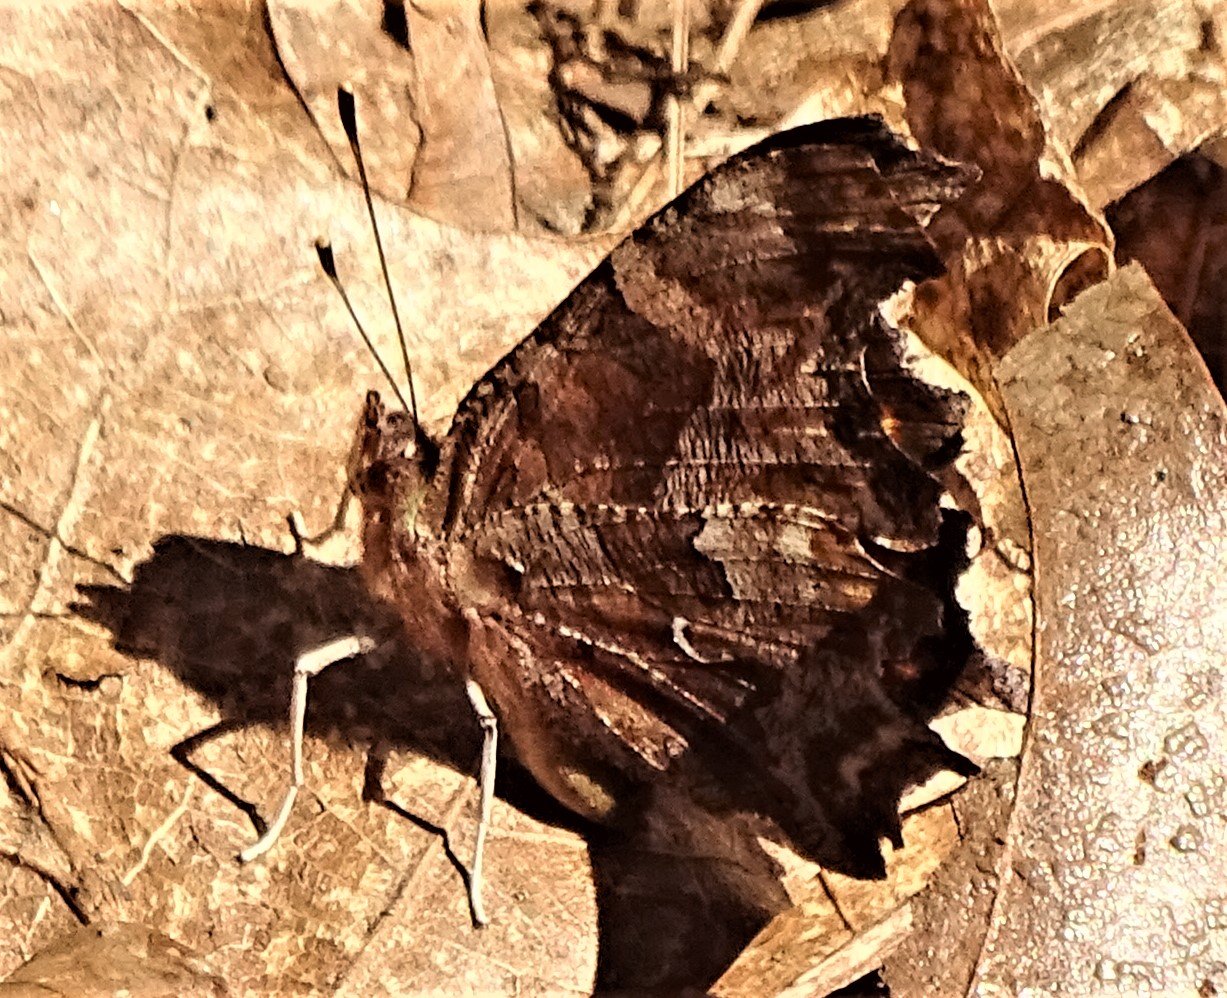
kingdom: Animalia
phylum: Arthropoda
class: Insecta
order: Lepidoptera
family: Nymphalidae
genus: Polygonia
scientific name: Polygonia comma
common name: Eastern Comma
